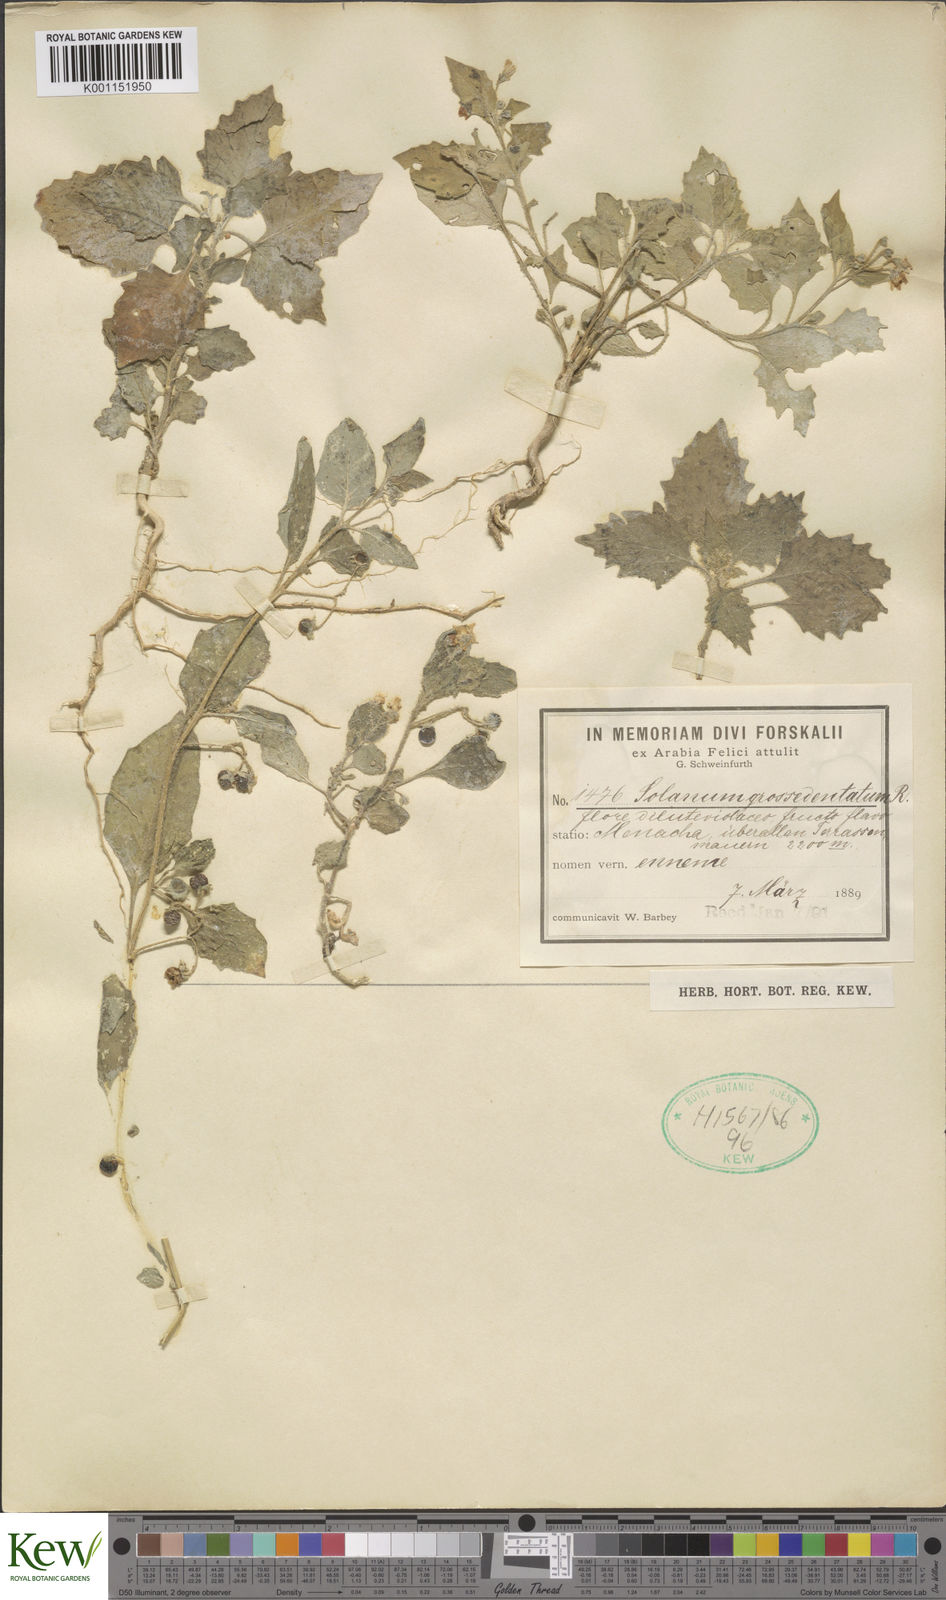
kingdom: Plantae
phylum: Tracheophyta
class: Magnoliopsida
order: Solanales
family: Solanaceae
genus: Solanum
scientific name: Solanum
